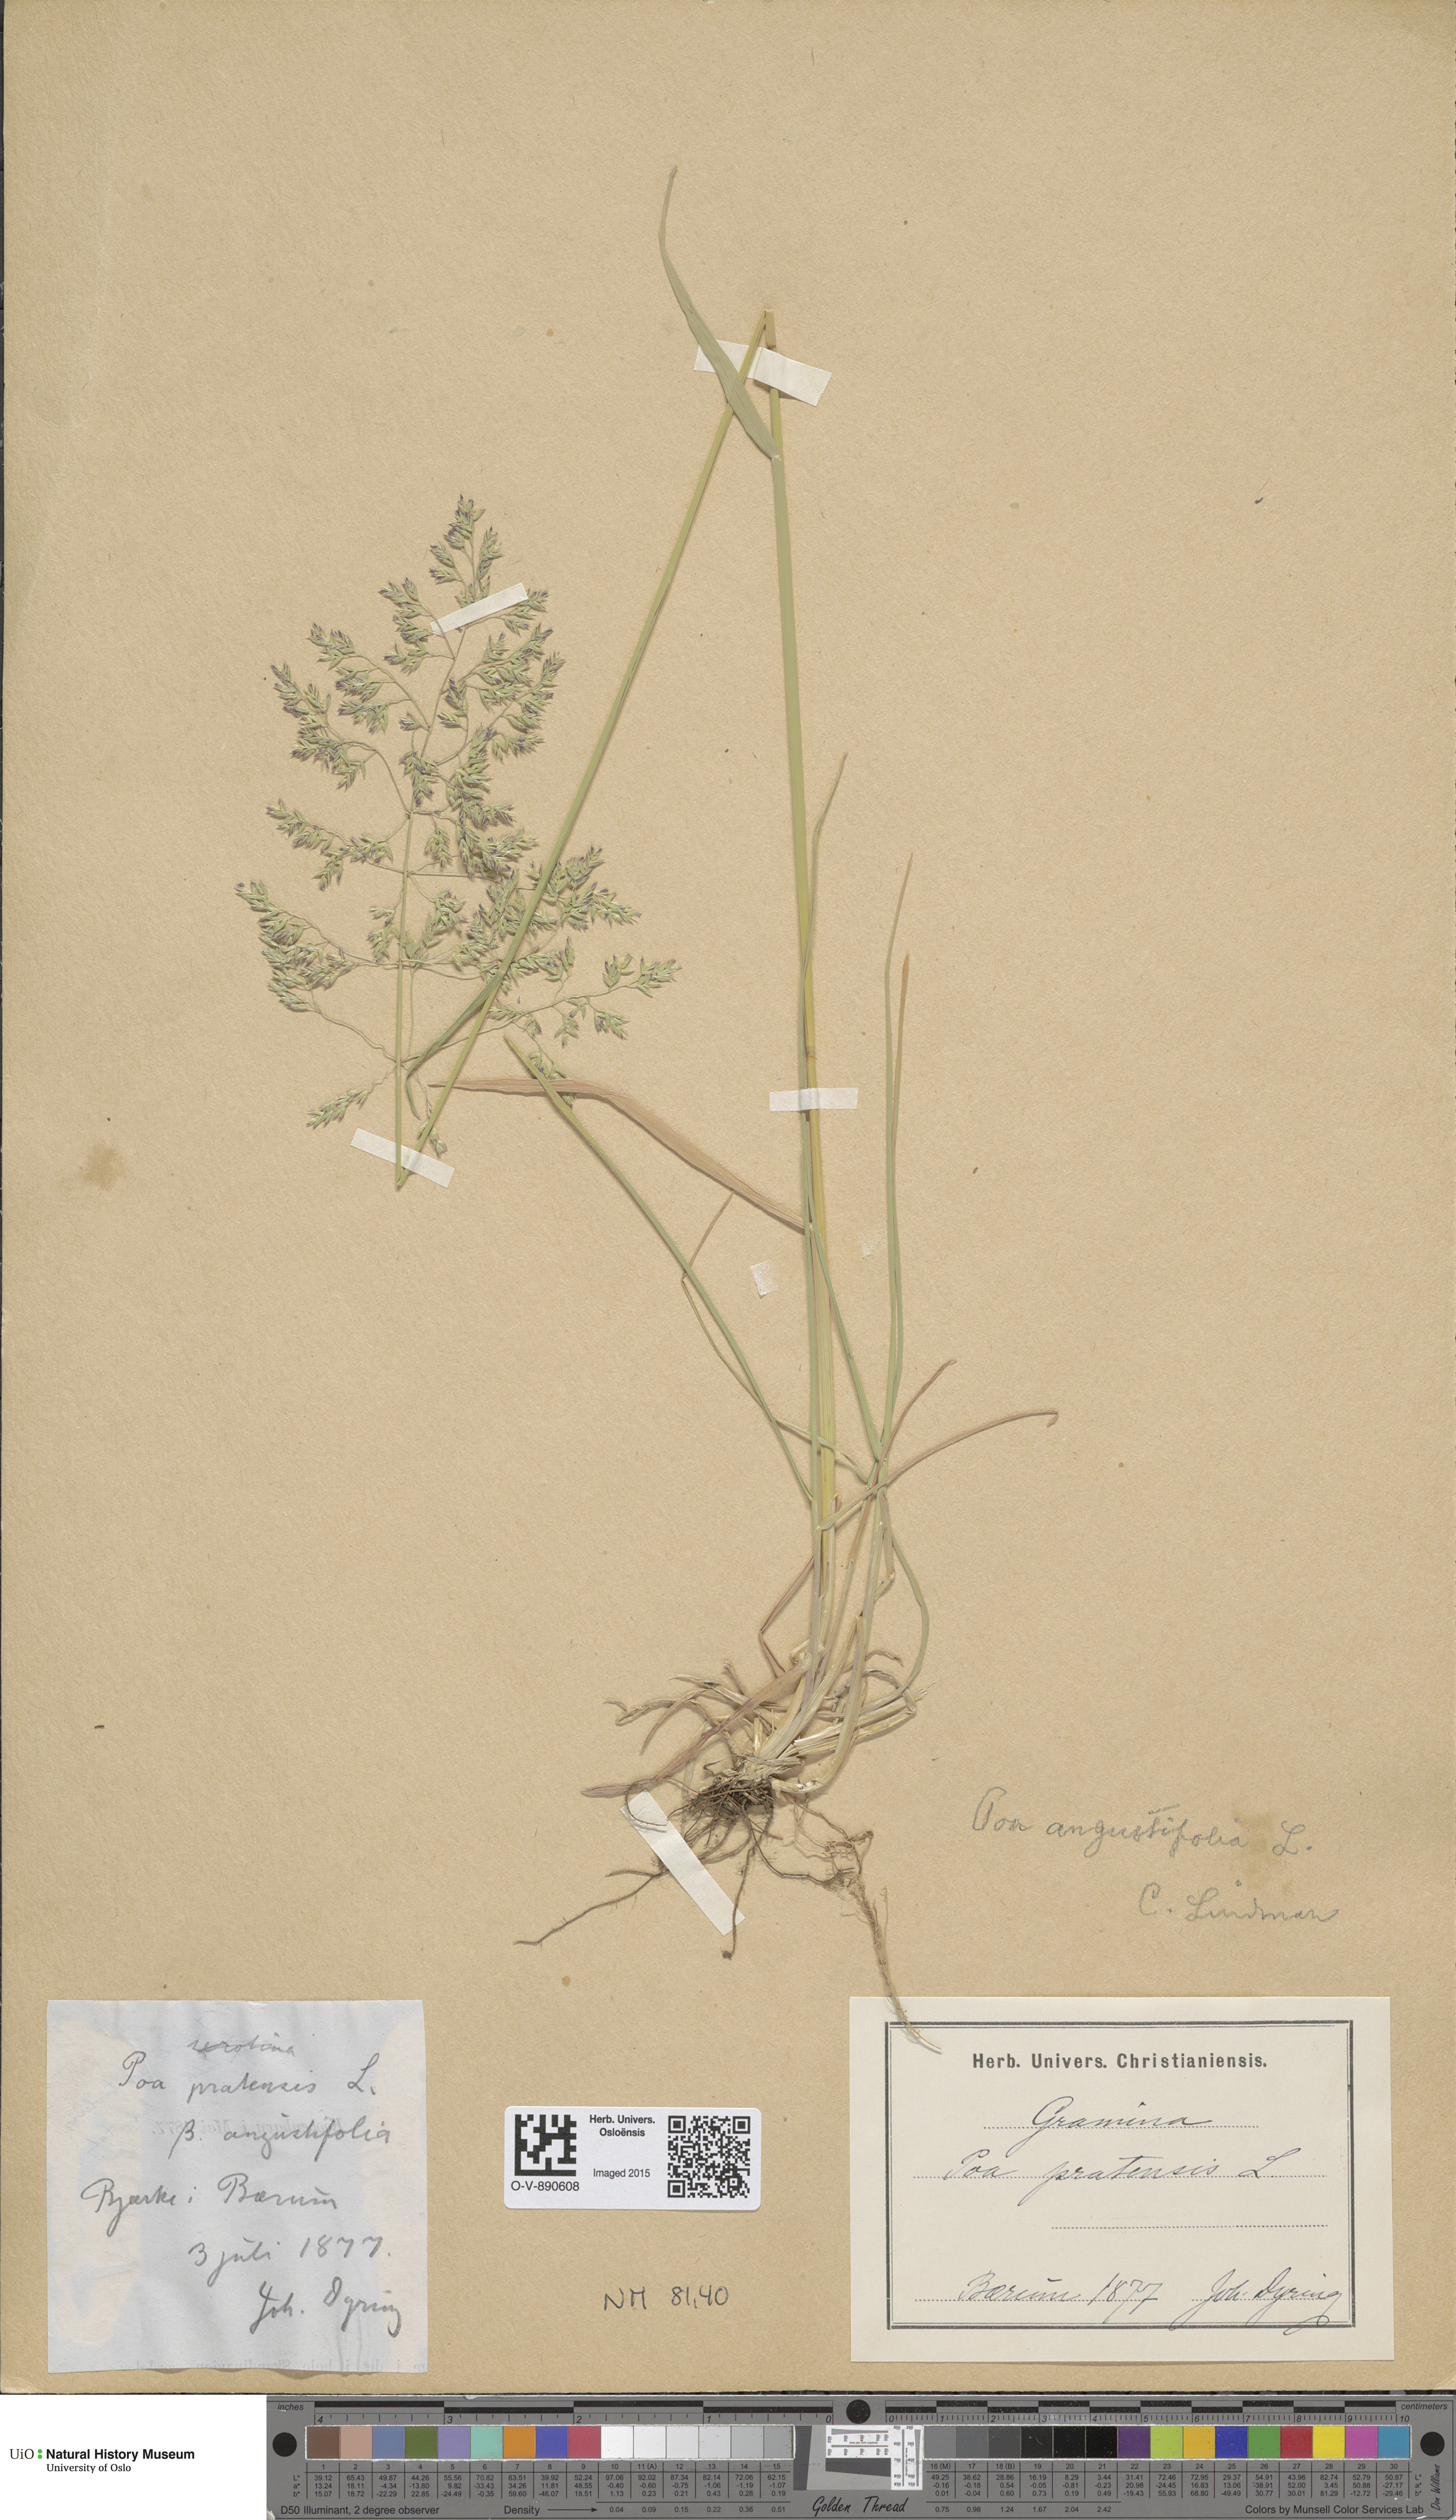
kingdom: Plantae
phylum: Tracheophyta
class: Liliopsida
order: Poales
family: Poaceae
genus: Poa
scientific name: Poa angustifolia
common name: Narrow-leaved meadow-grass
